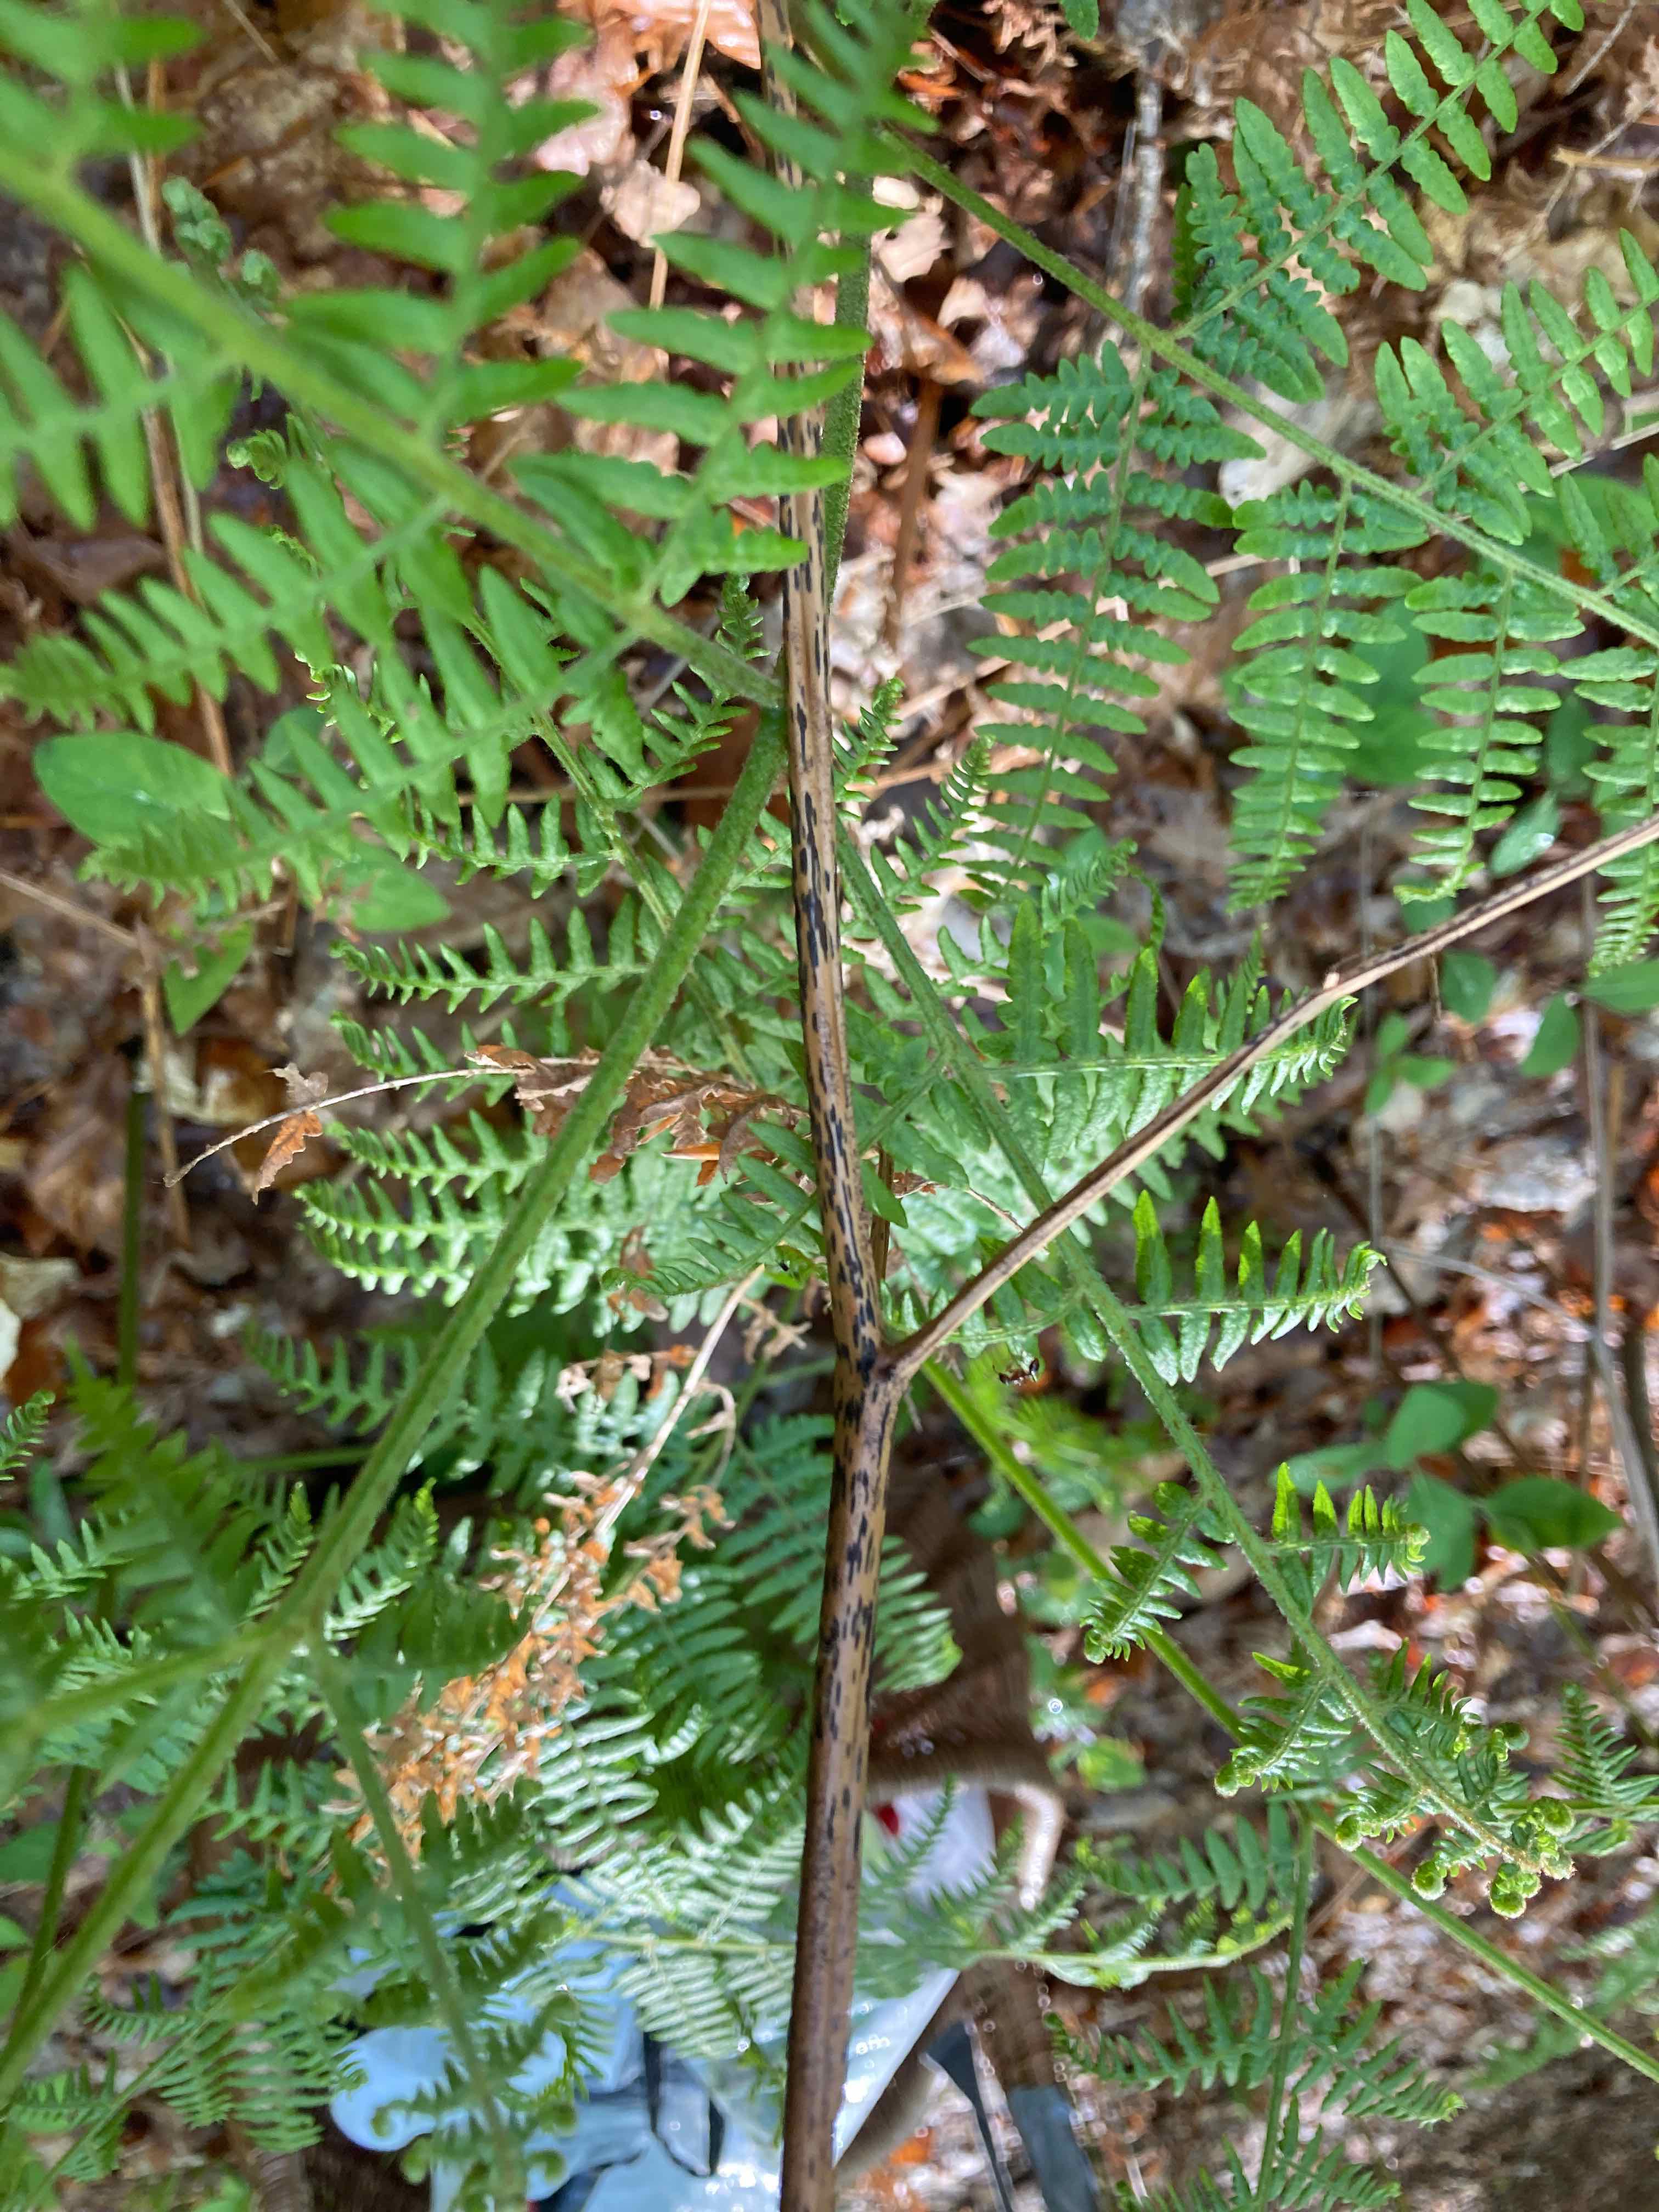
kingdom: Fungi
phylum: Ascomycota
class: Dothideomycetes
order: Pleosporales
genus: Rhopographus
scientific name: Rhopographus filicinus
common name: Bracken map
